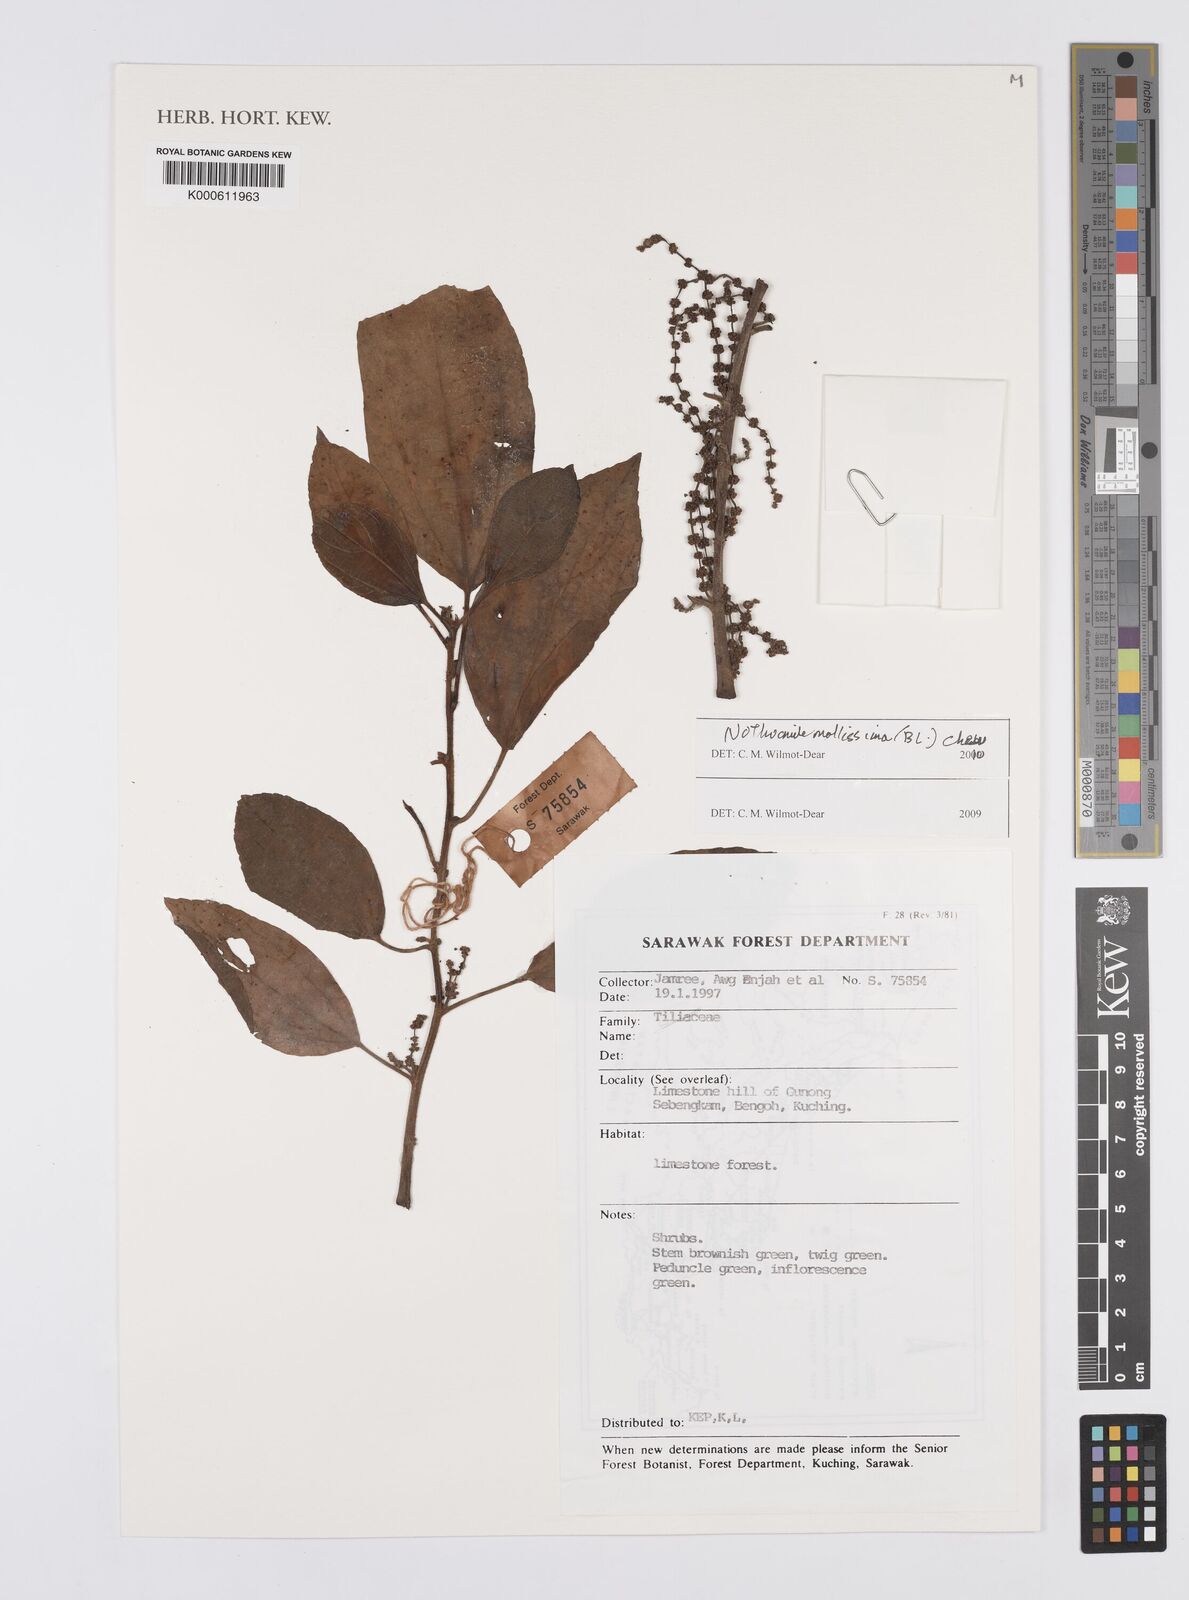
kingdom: Plantae
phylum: Tracheophyta
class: Magnoliopsida
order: Rosales
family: Urticaceae
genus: Nothocnide
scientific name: Nothocnide mollissima
